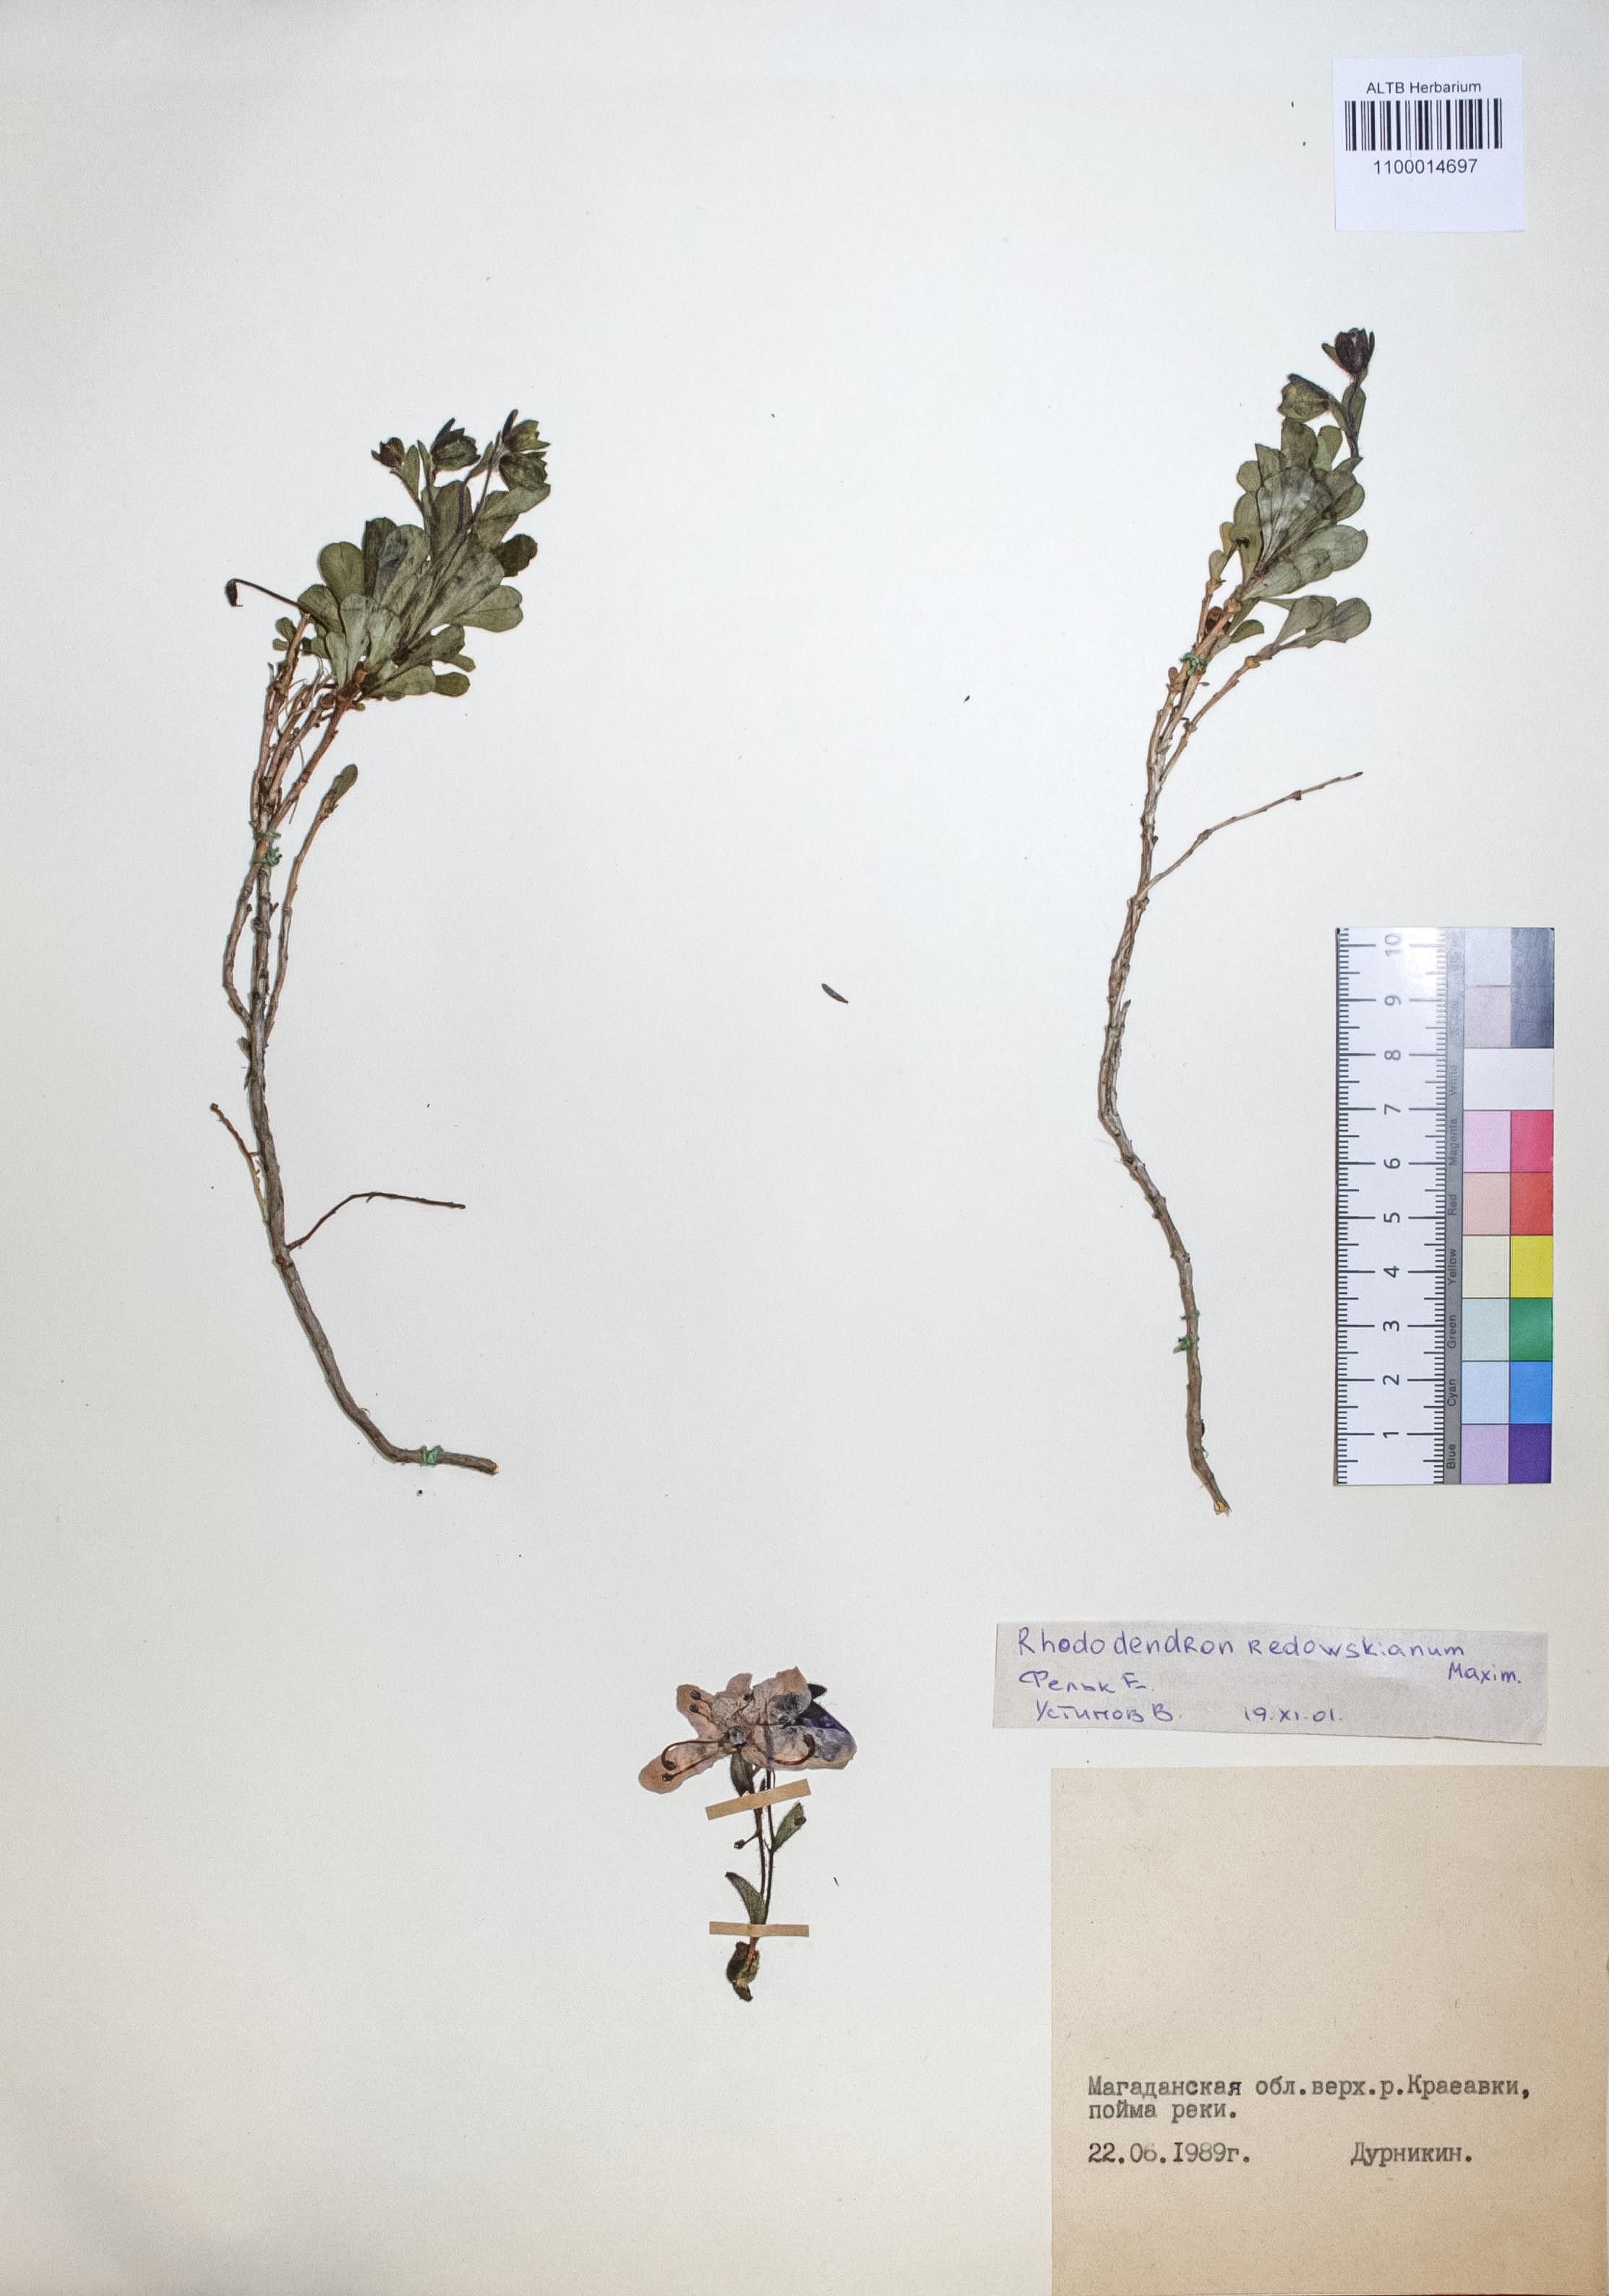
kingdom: Plantae
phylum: Tracheophyta
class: Magnoliopsida
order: Ericales
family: Ericaceae
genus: Rhododendron
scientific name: Rhododendron redowskianum
